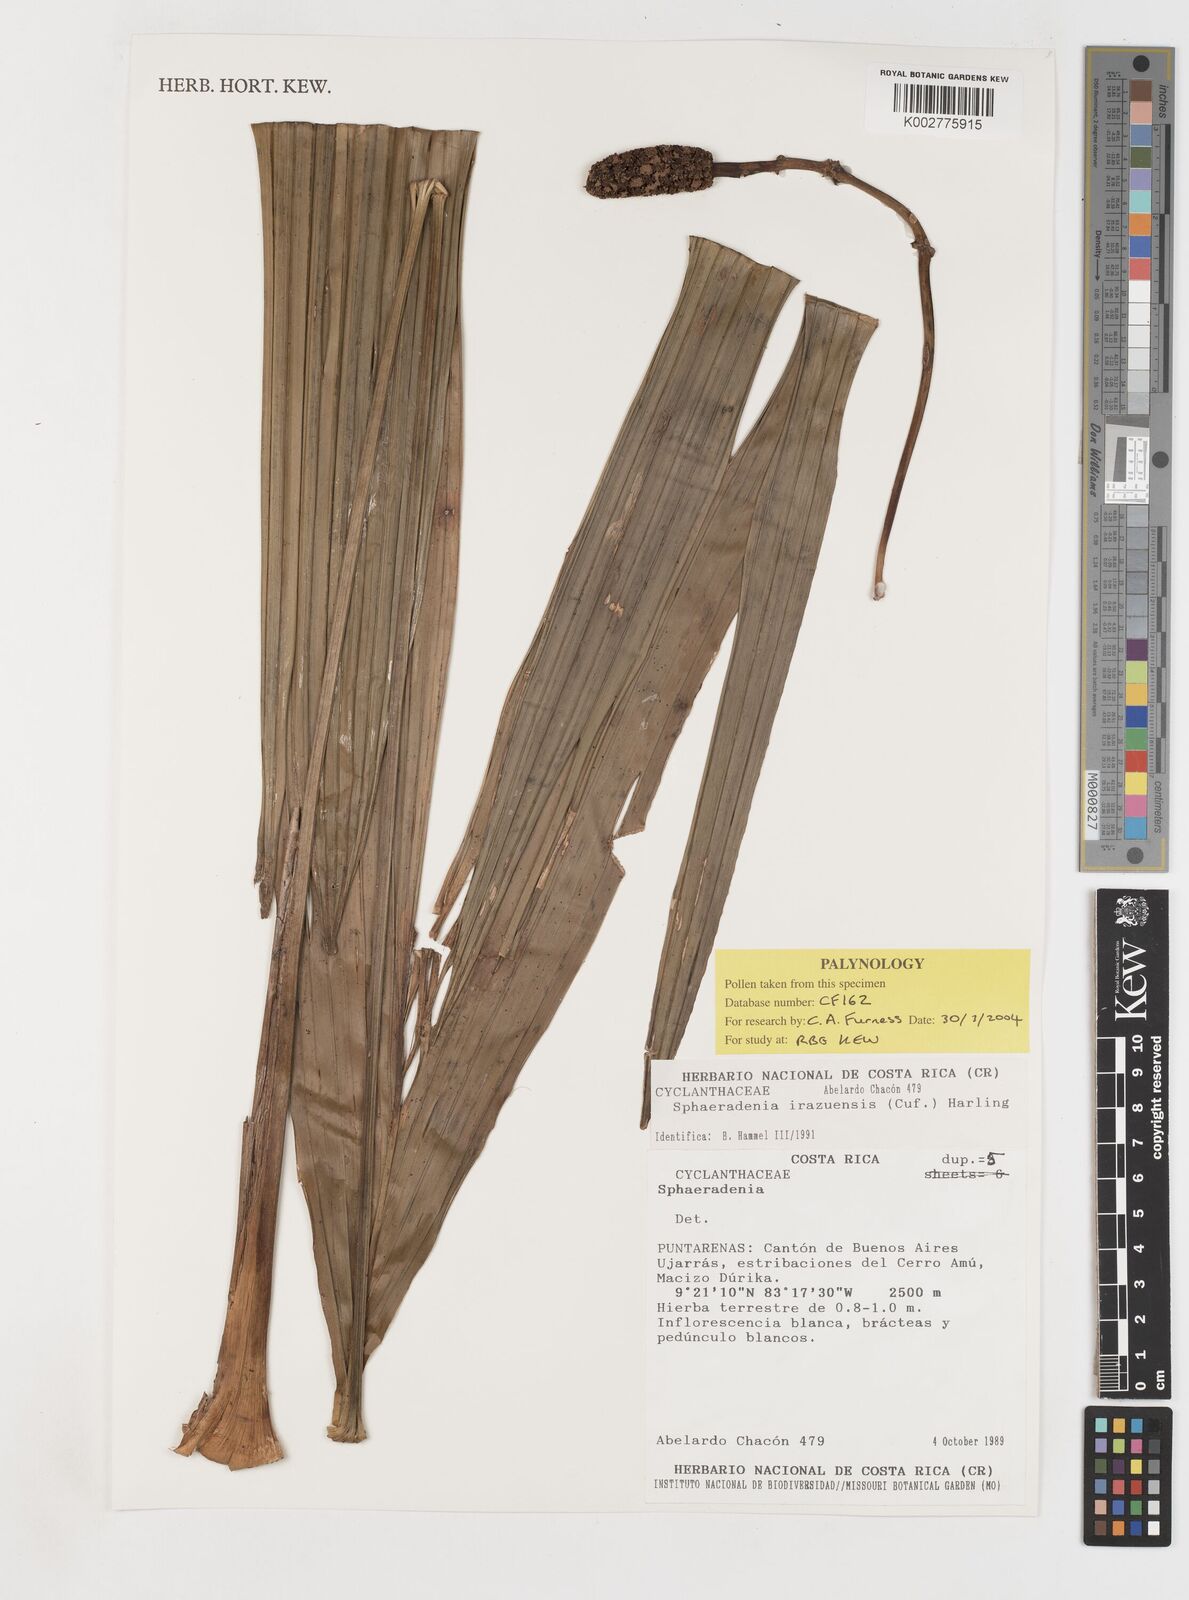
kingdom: Plantae
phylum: Tracheophyta
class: Liliopsida
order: Pandanales
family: Cyclanthaceae
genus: Sphaeradenia
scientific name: Sphaeradenia laucheana
